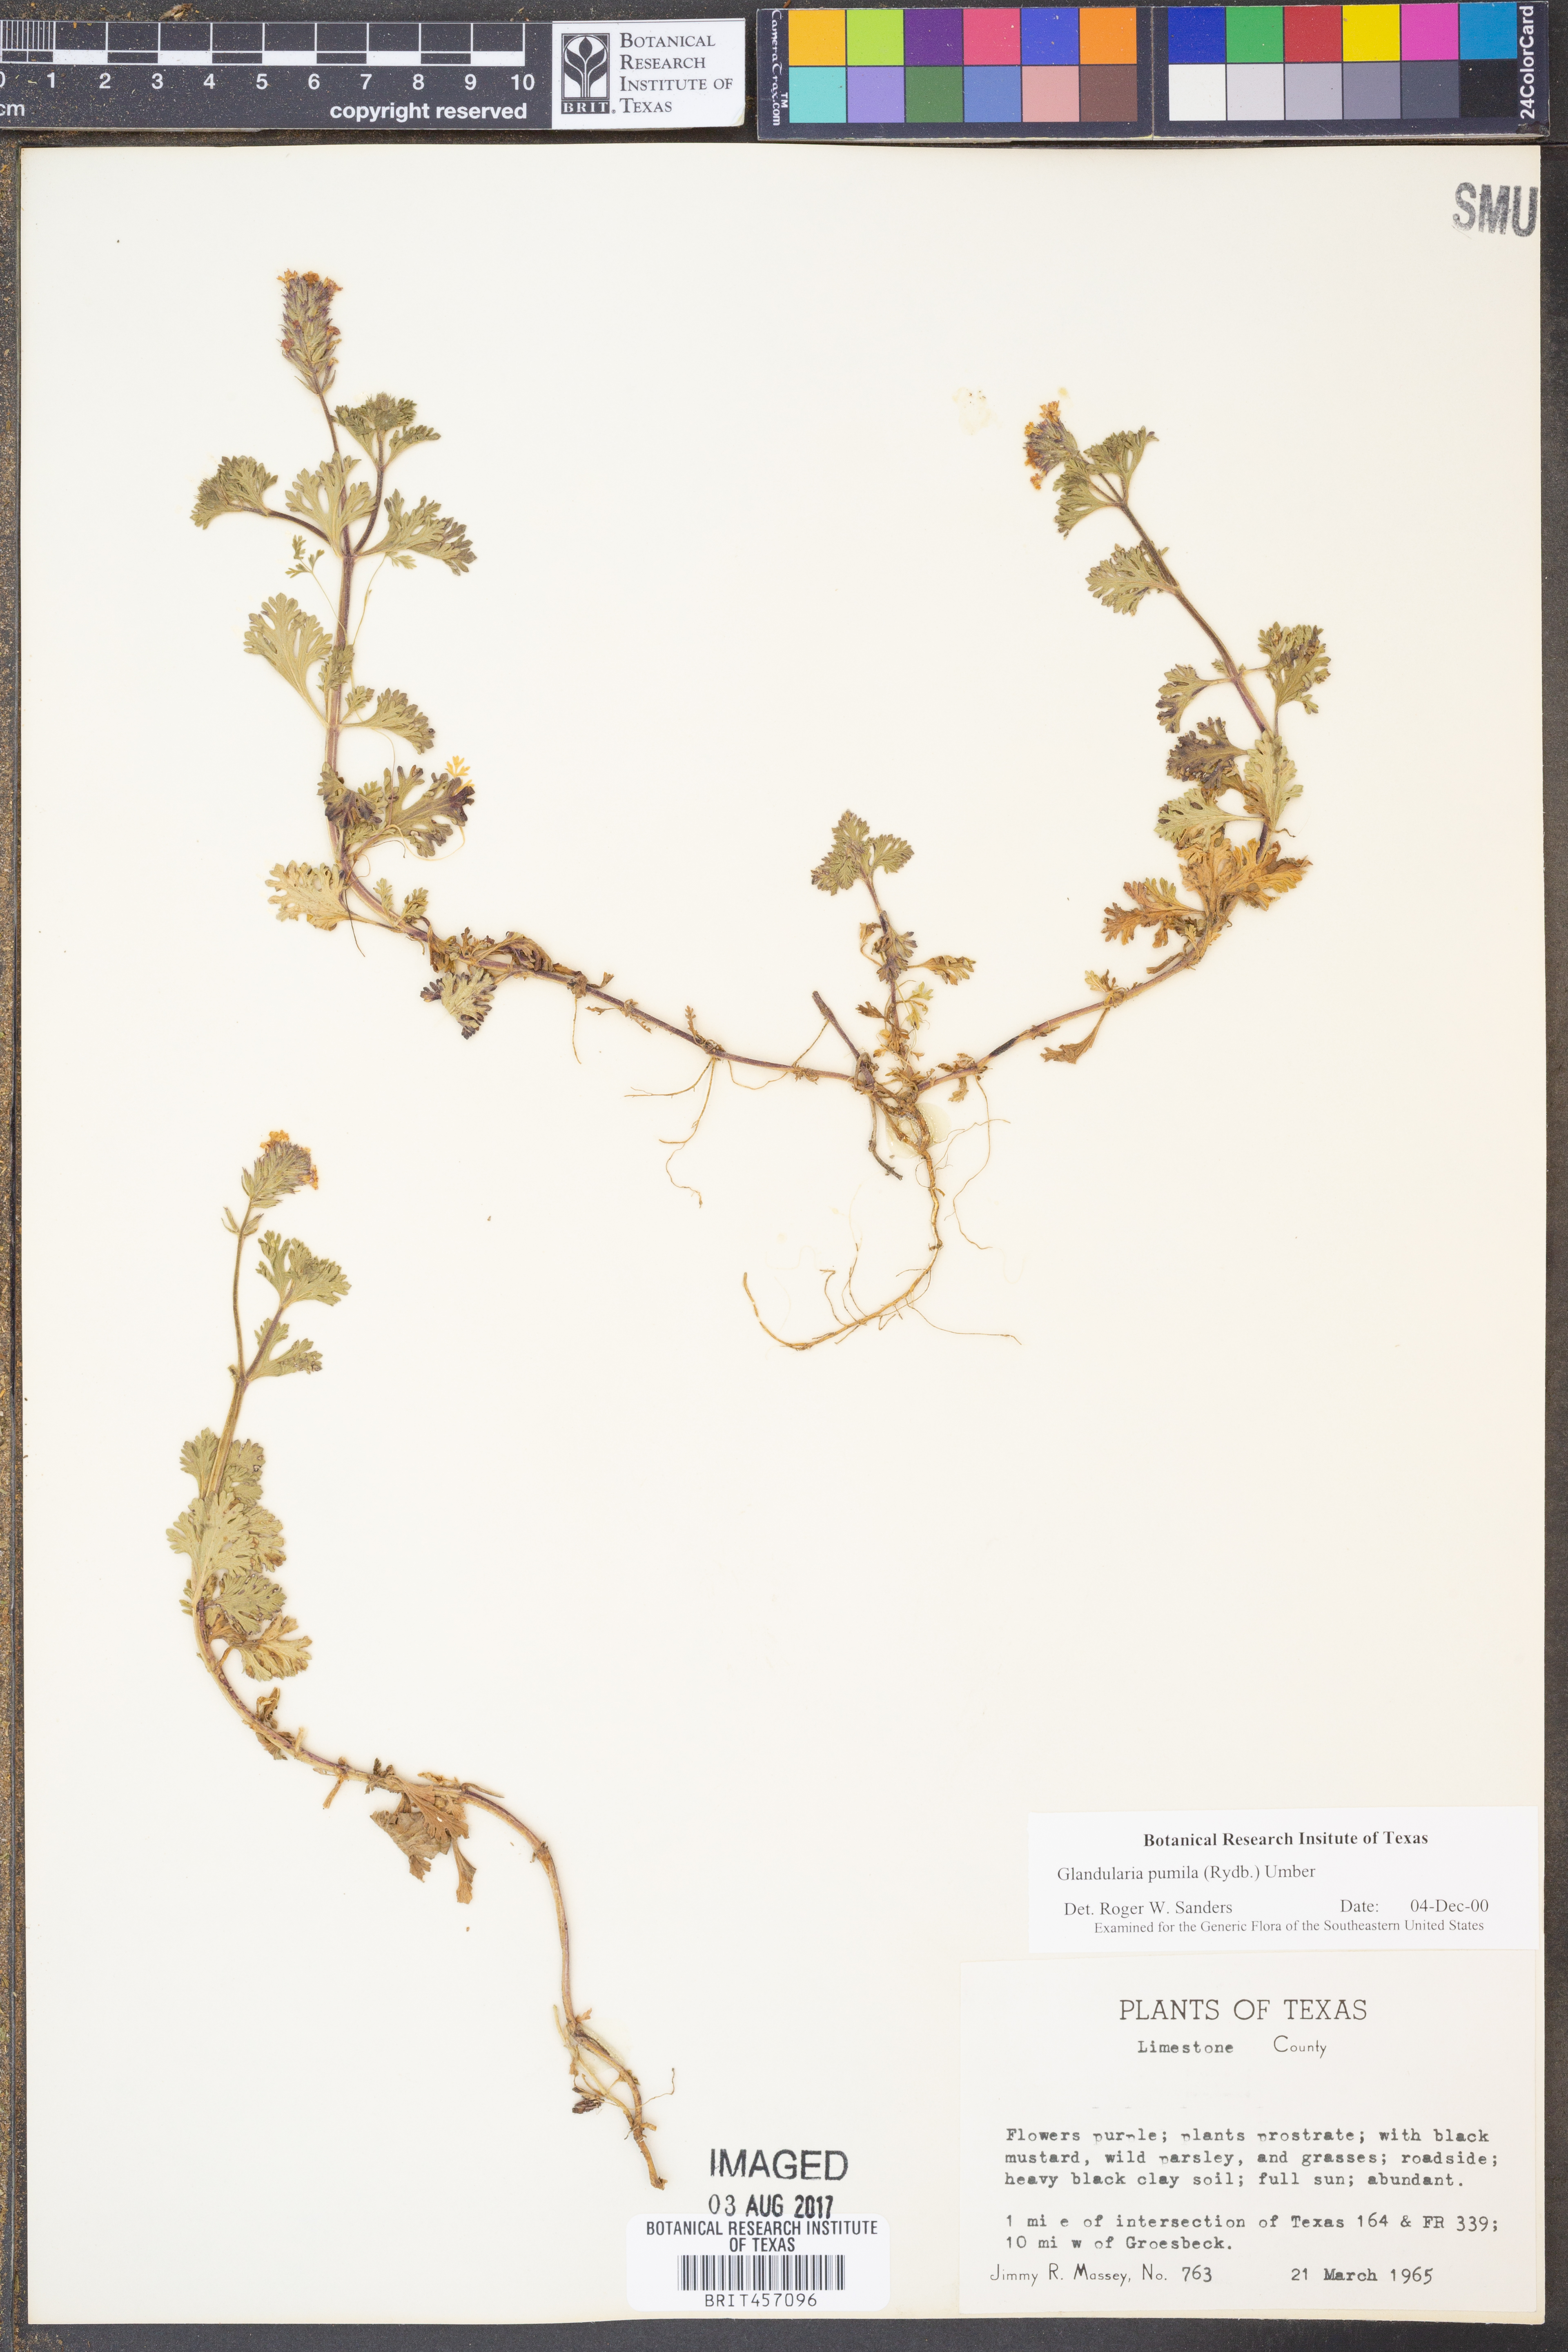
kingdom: Plantae
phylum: Tracheophyta
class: Magnoliopsida
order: Lamiales
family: Verbenaceae
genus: Verbena
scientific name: Verbena pumila
